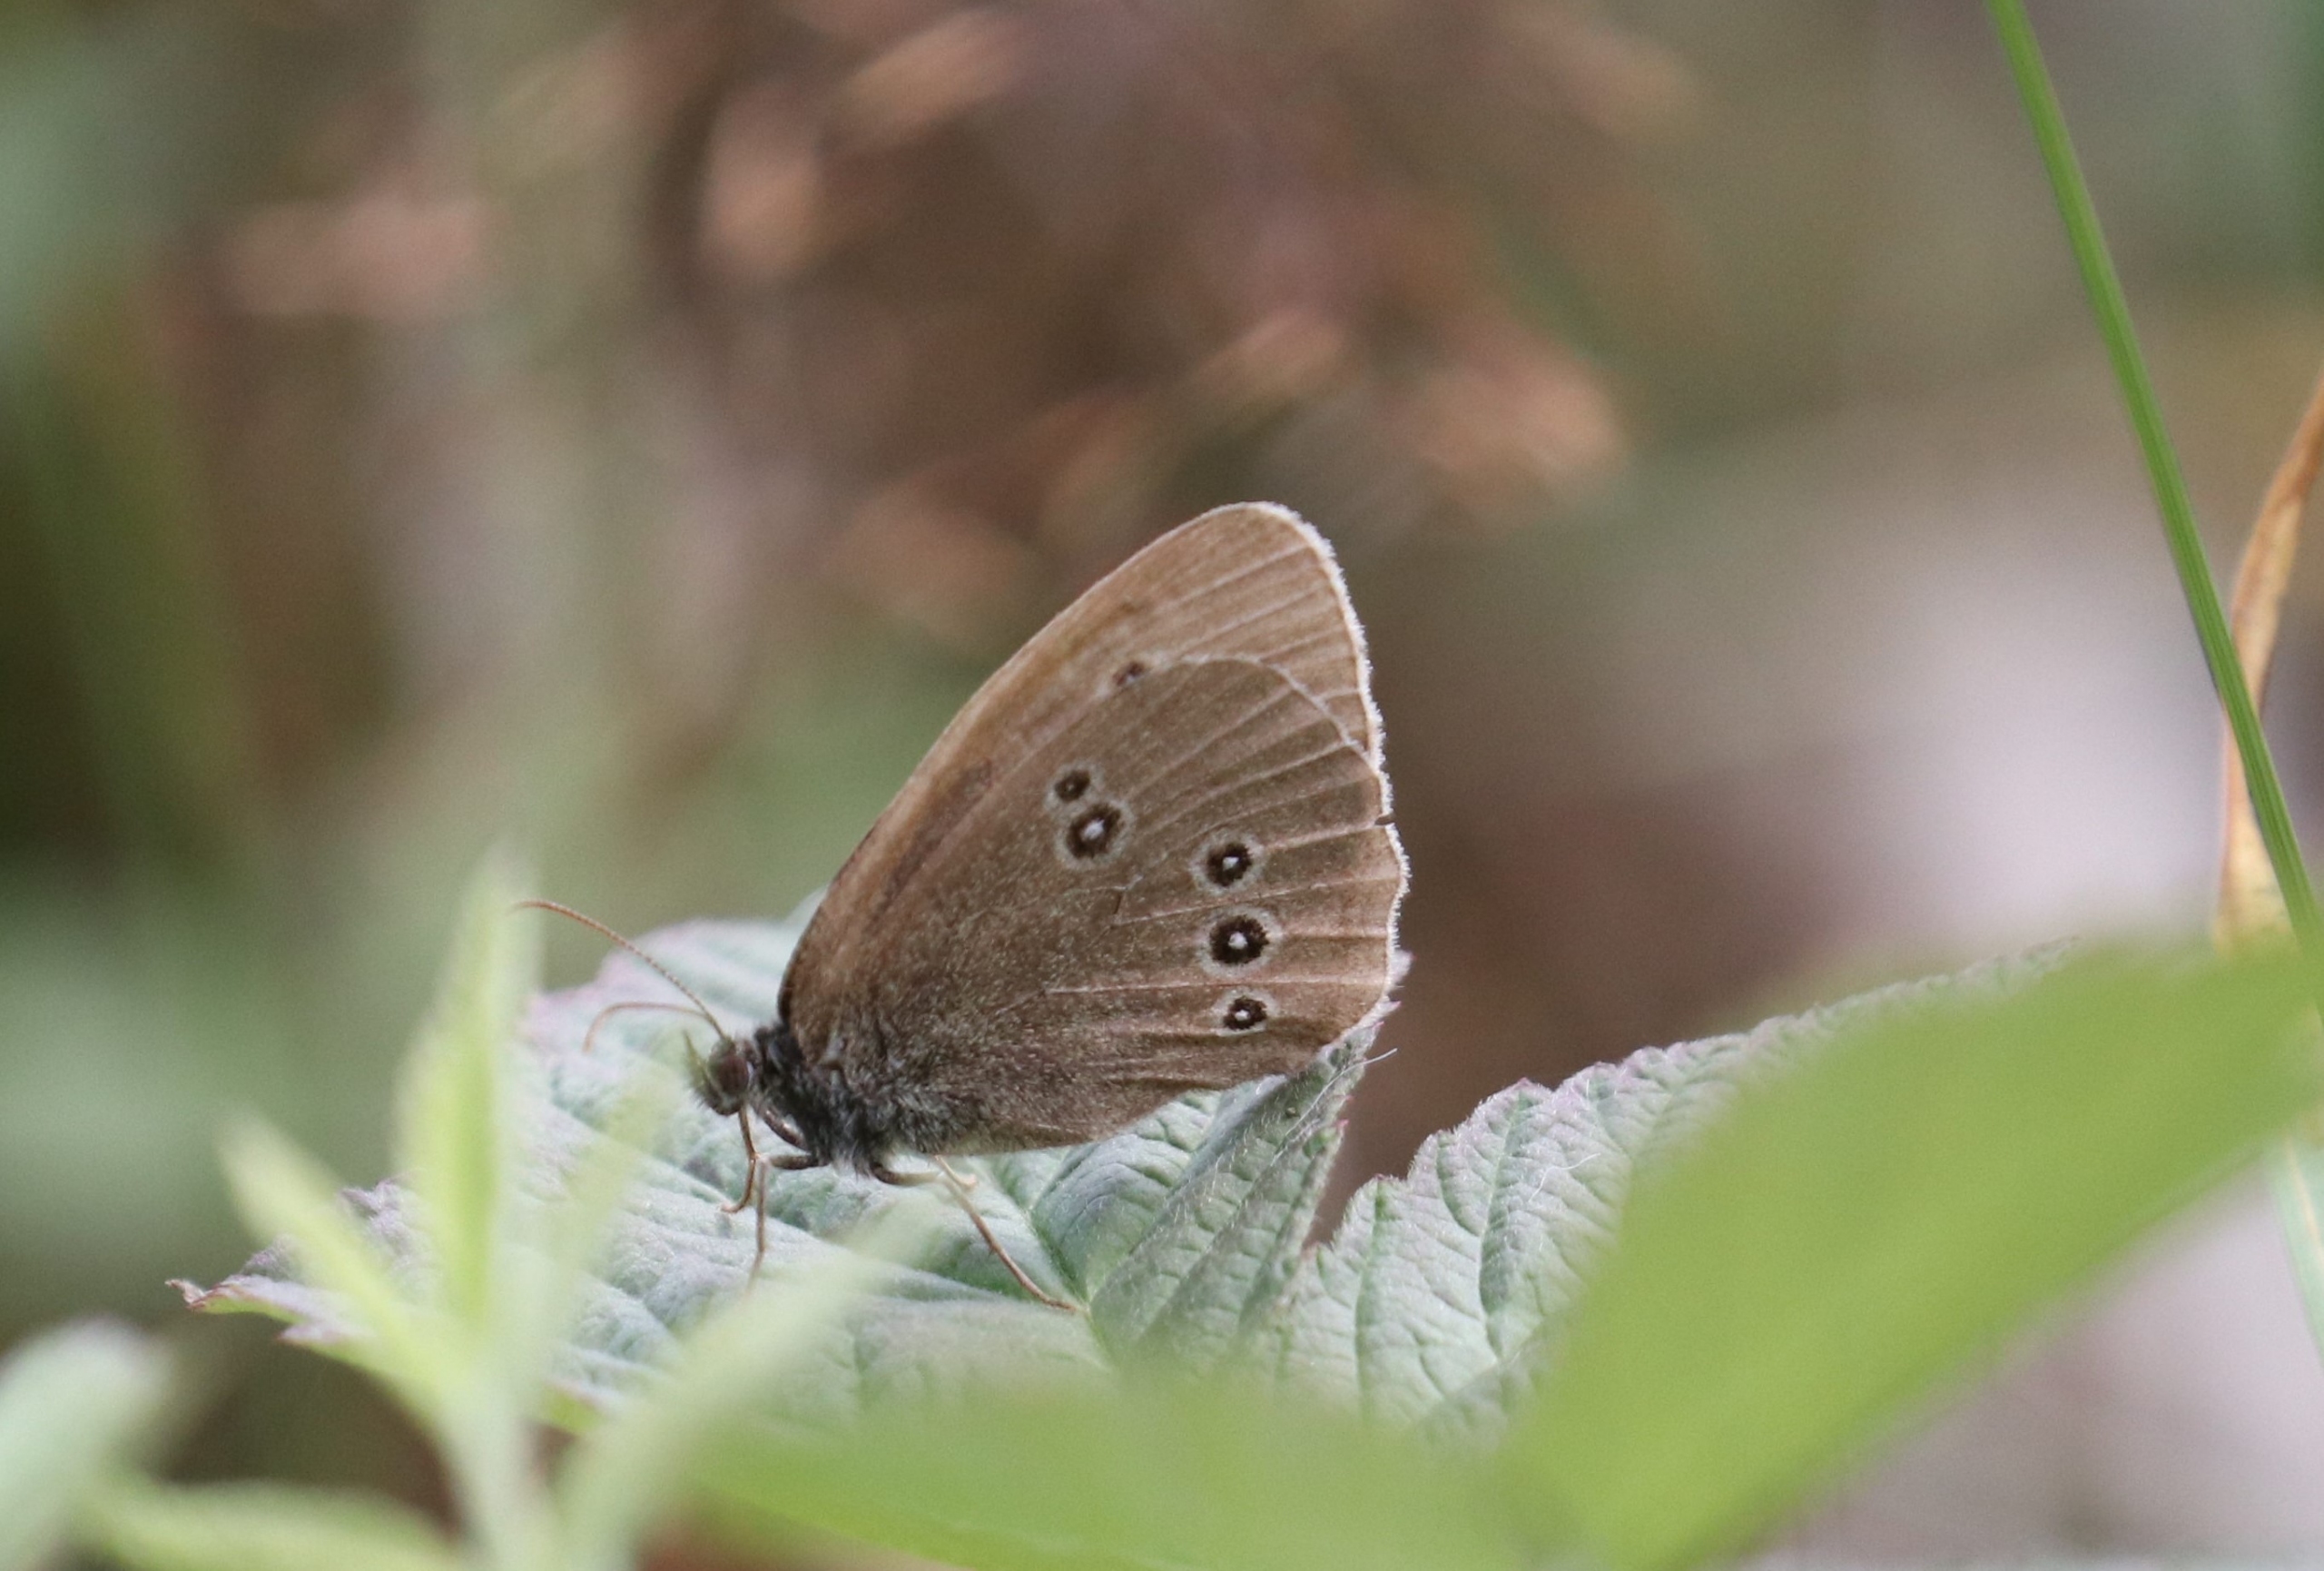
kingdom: Animalia
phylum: Arthropoda
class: Insecta
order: Lepidoptera
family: Nymphalidae
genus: Aphantopus
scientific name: Aphantopus hyperantus
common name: Engrandøje
